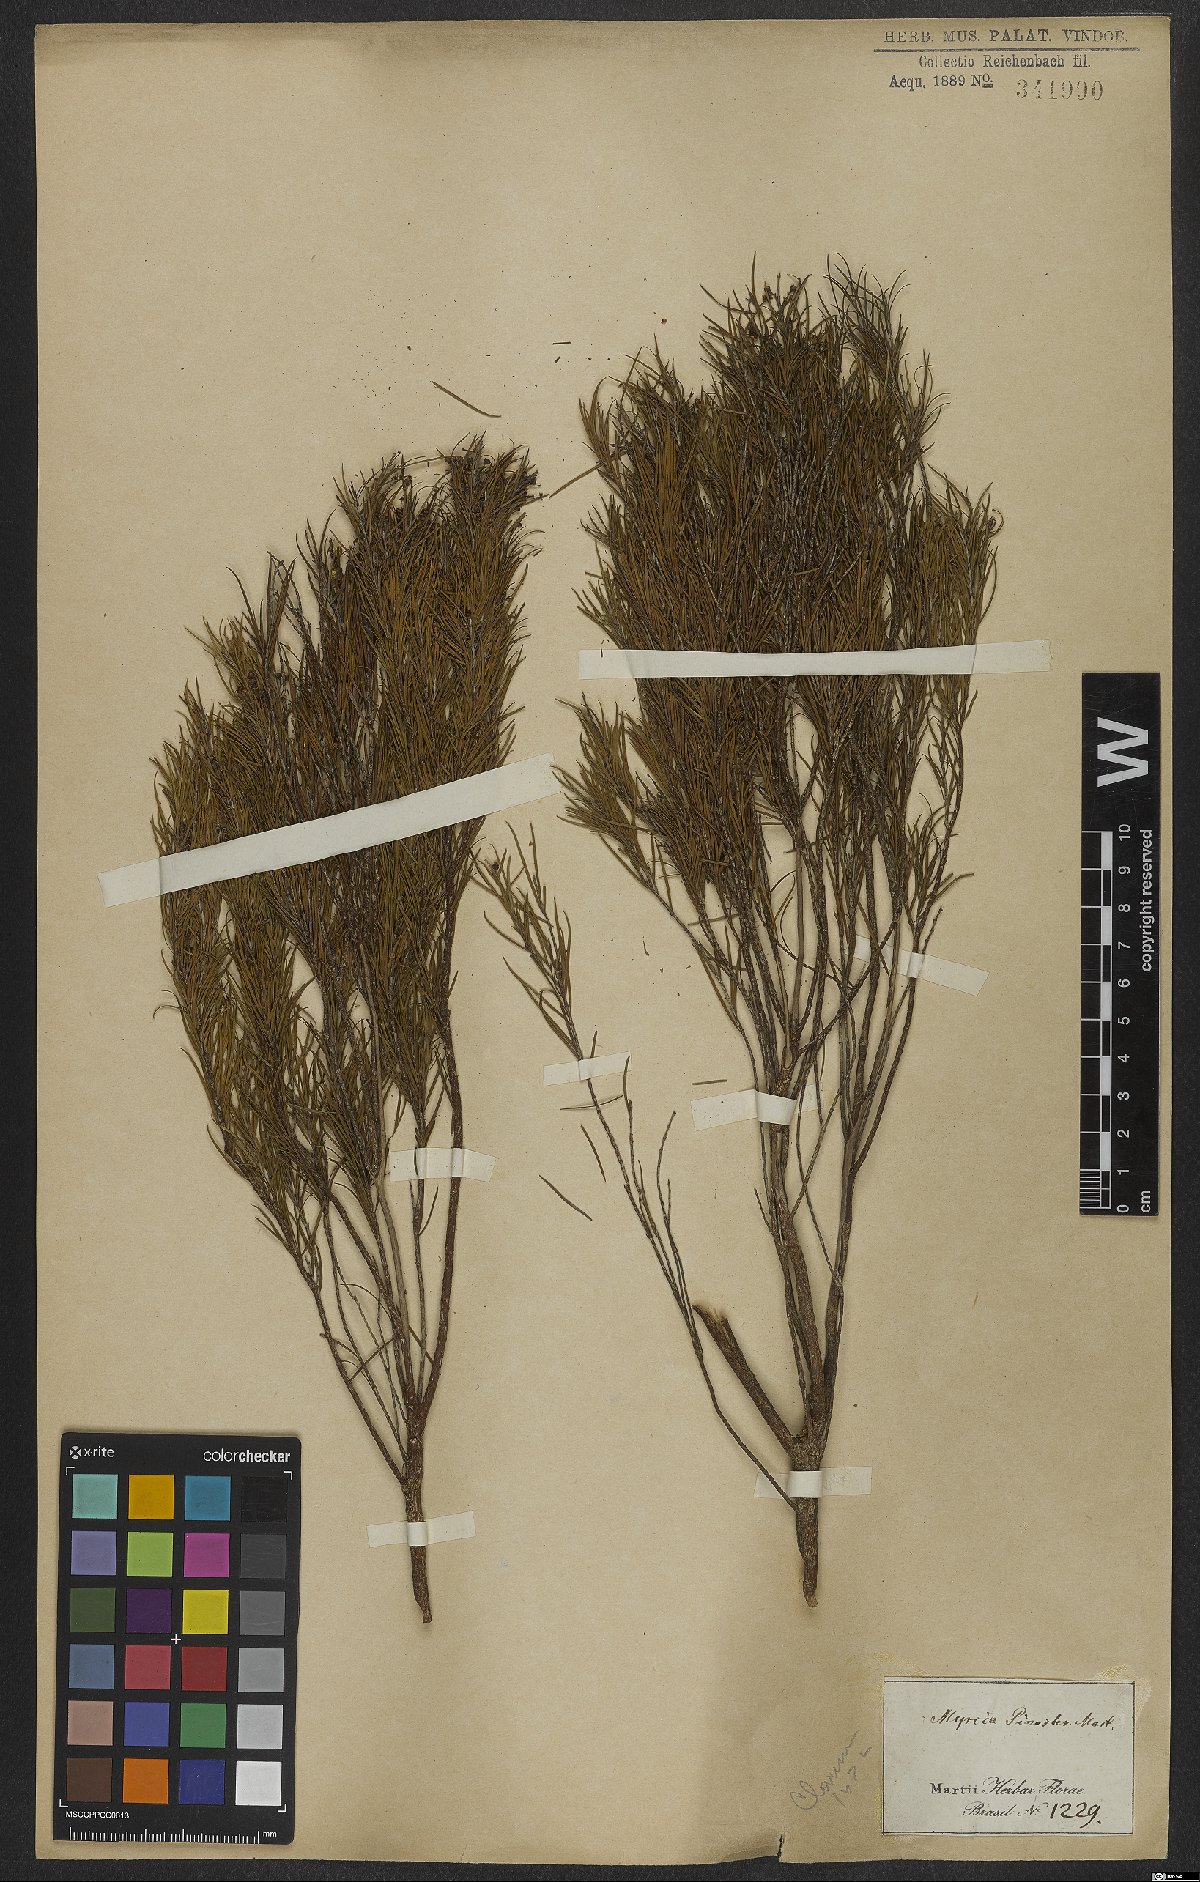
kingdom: Plantae
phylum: Tracheophyta
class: Magnoliopsida
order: Myrtales
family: Myrtaceae
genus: Blepharocalyx
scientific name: Blepharocalyx myriophyllus
